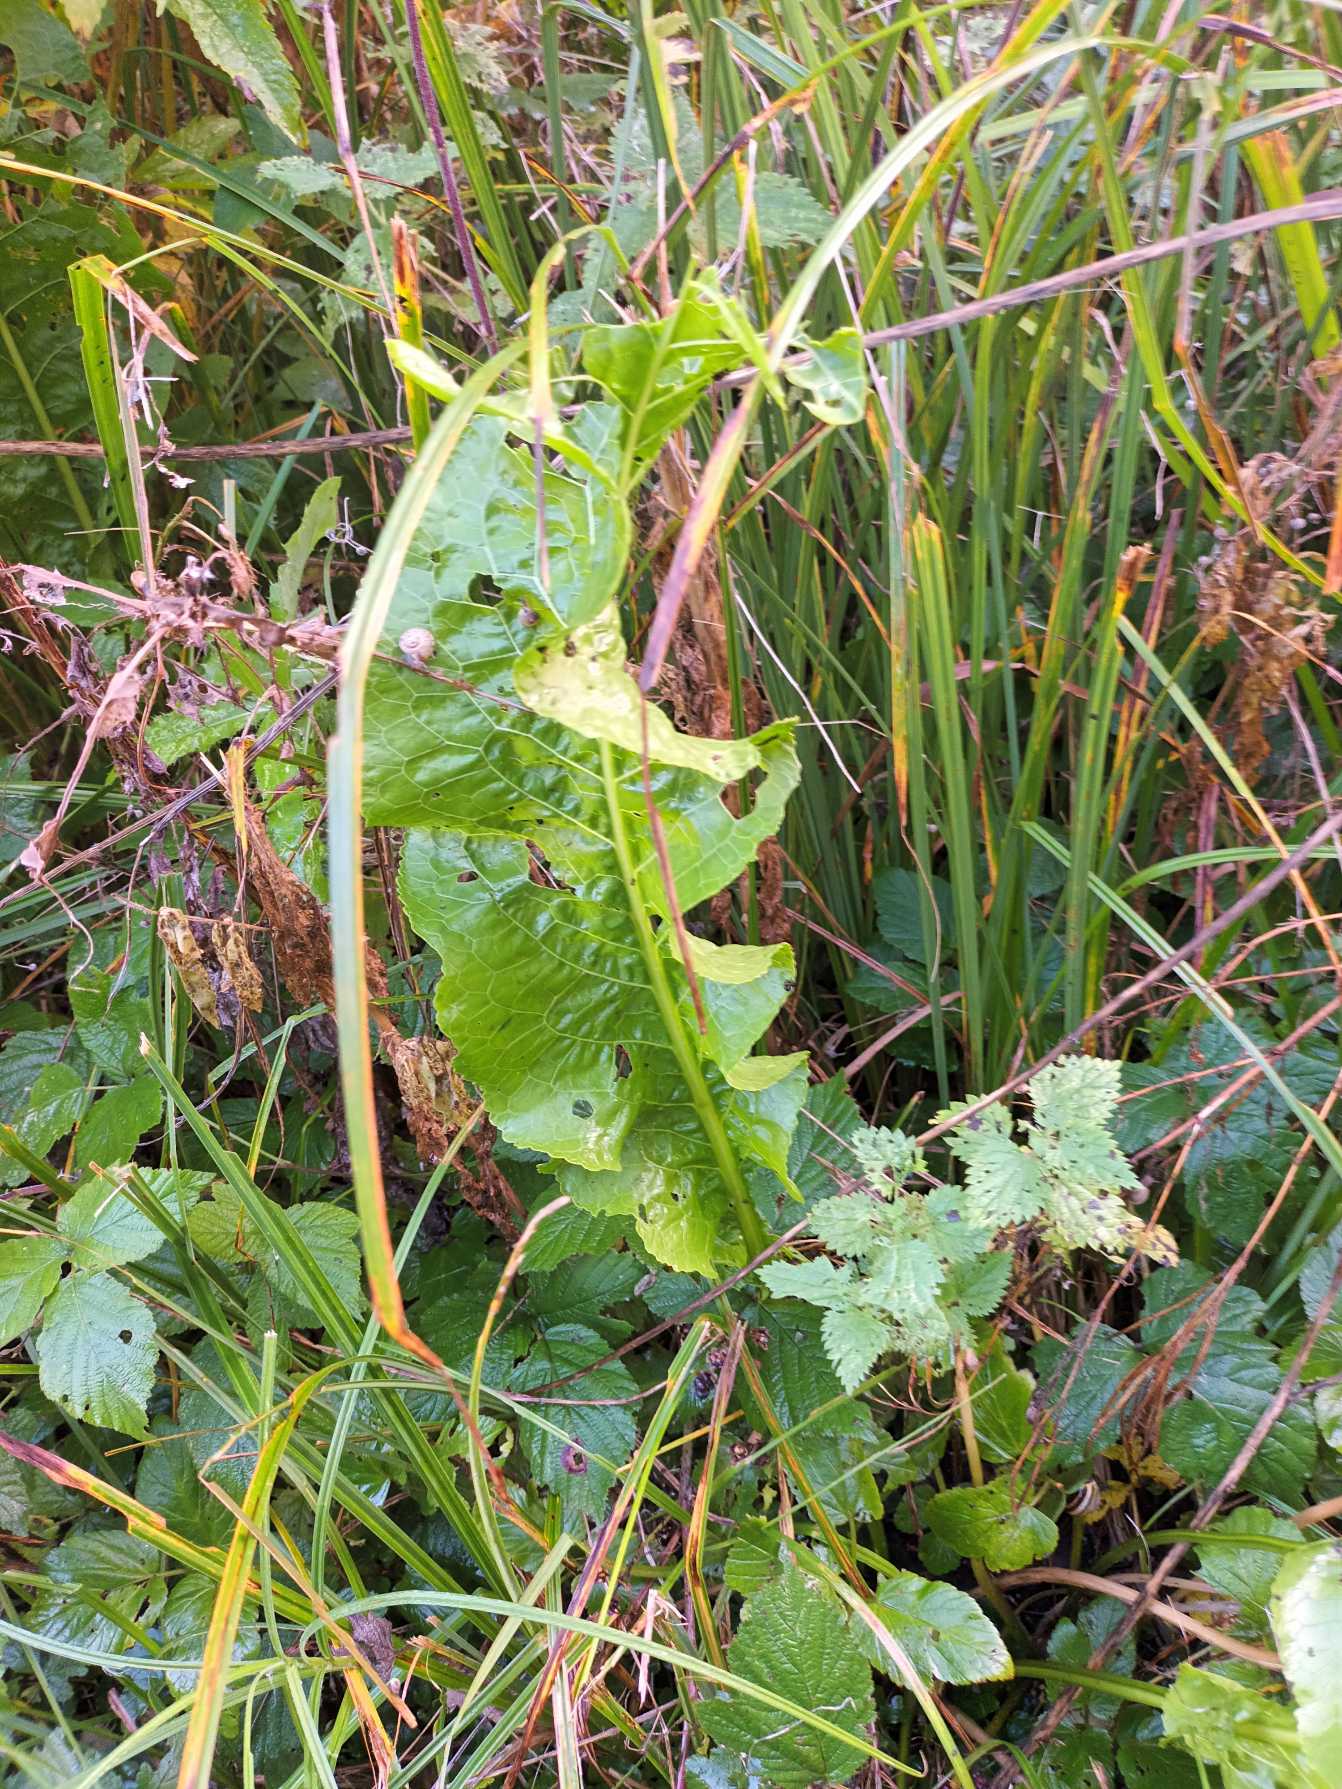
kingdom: Plantae
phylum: Tracheophyta
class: Magnoliopsida
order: Brassicales
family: Brassicaceae
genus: Armoracia
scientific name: Armoracia rusticana
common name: Peberrod
